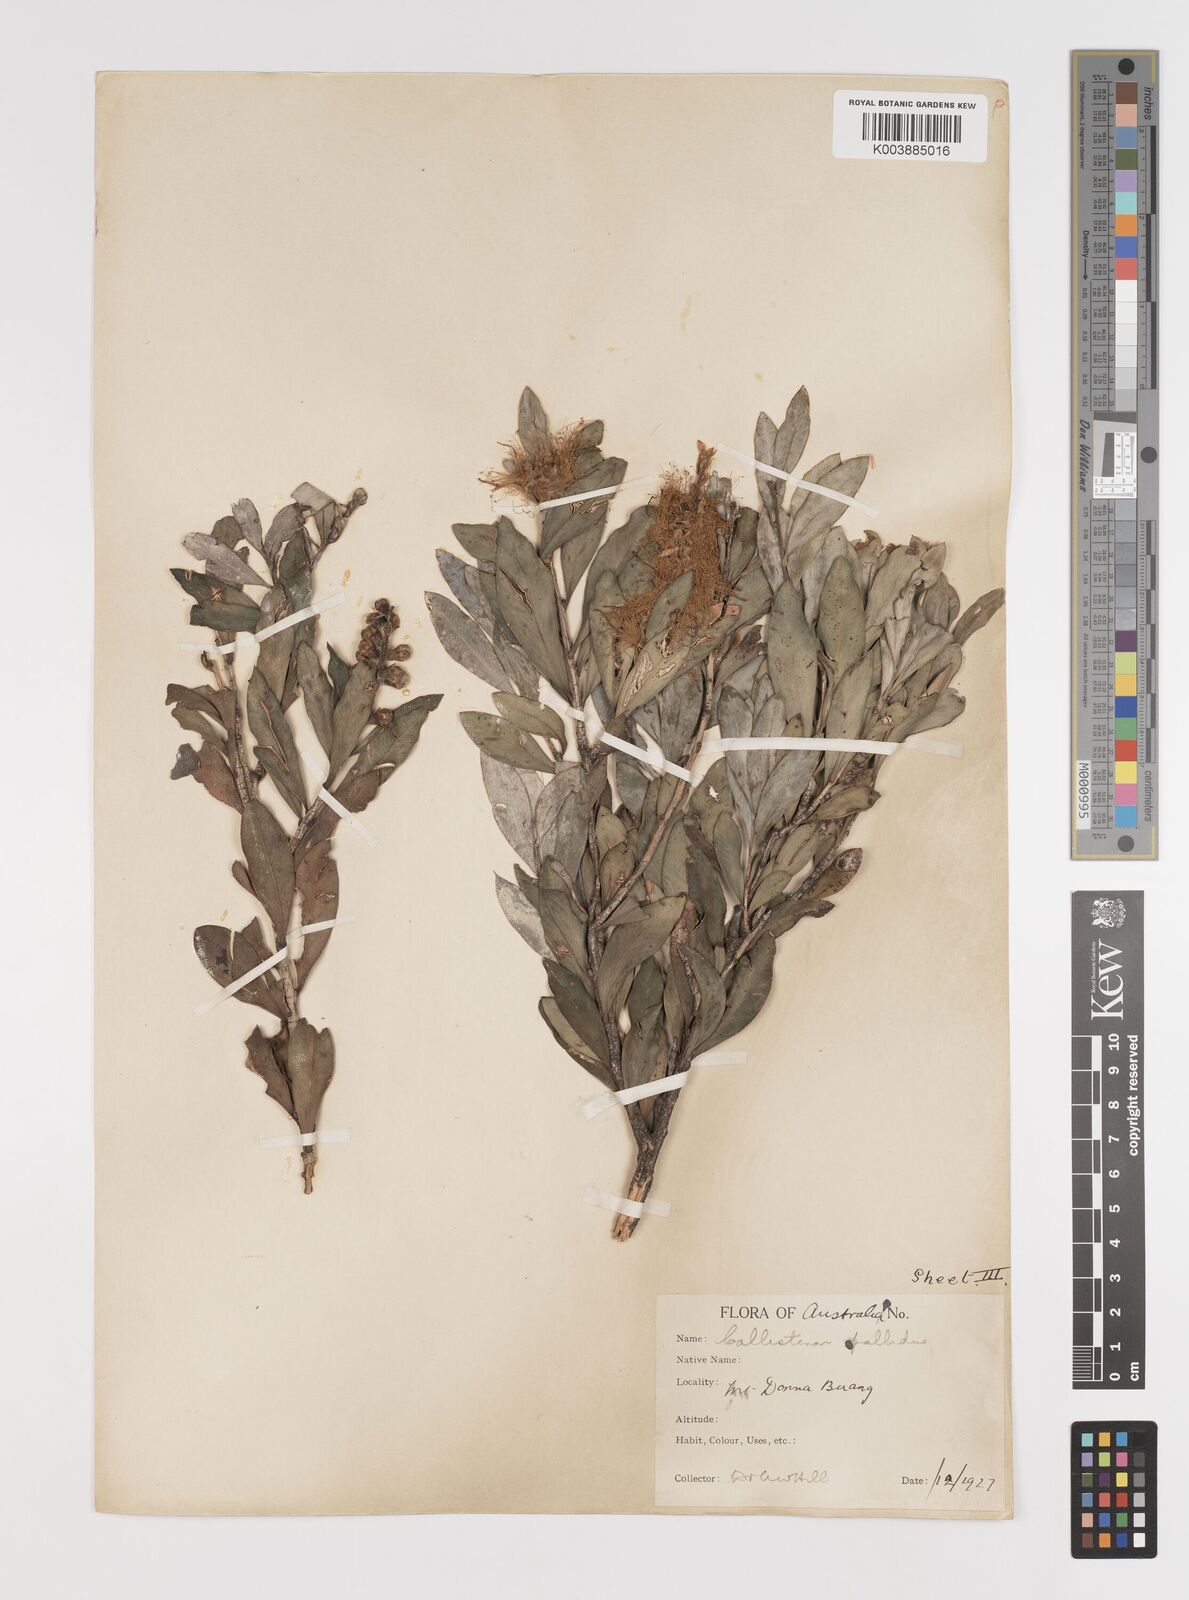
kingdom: Plantae
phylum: Tracheophyta
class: Magnoliopsida
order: Myrtales
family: Myrtaceae
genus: Melaleuca
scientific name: Melaleuca pallida
